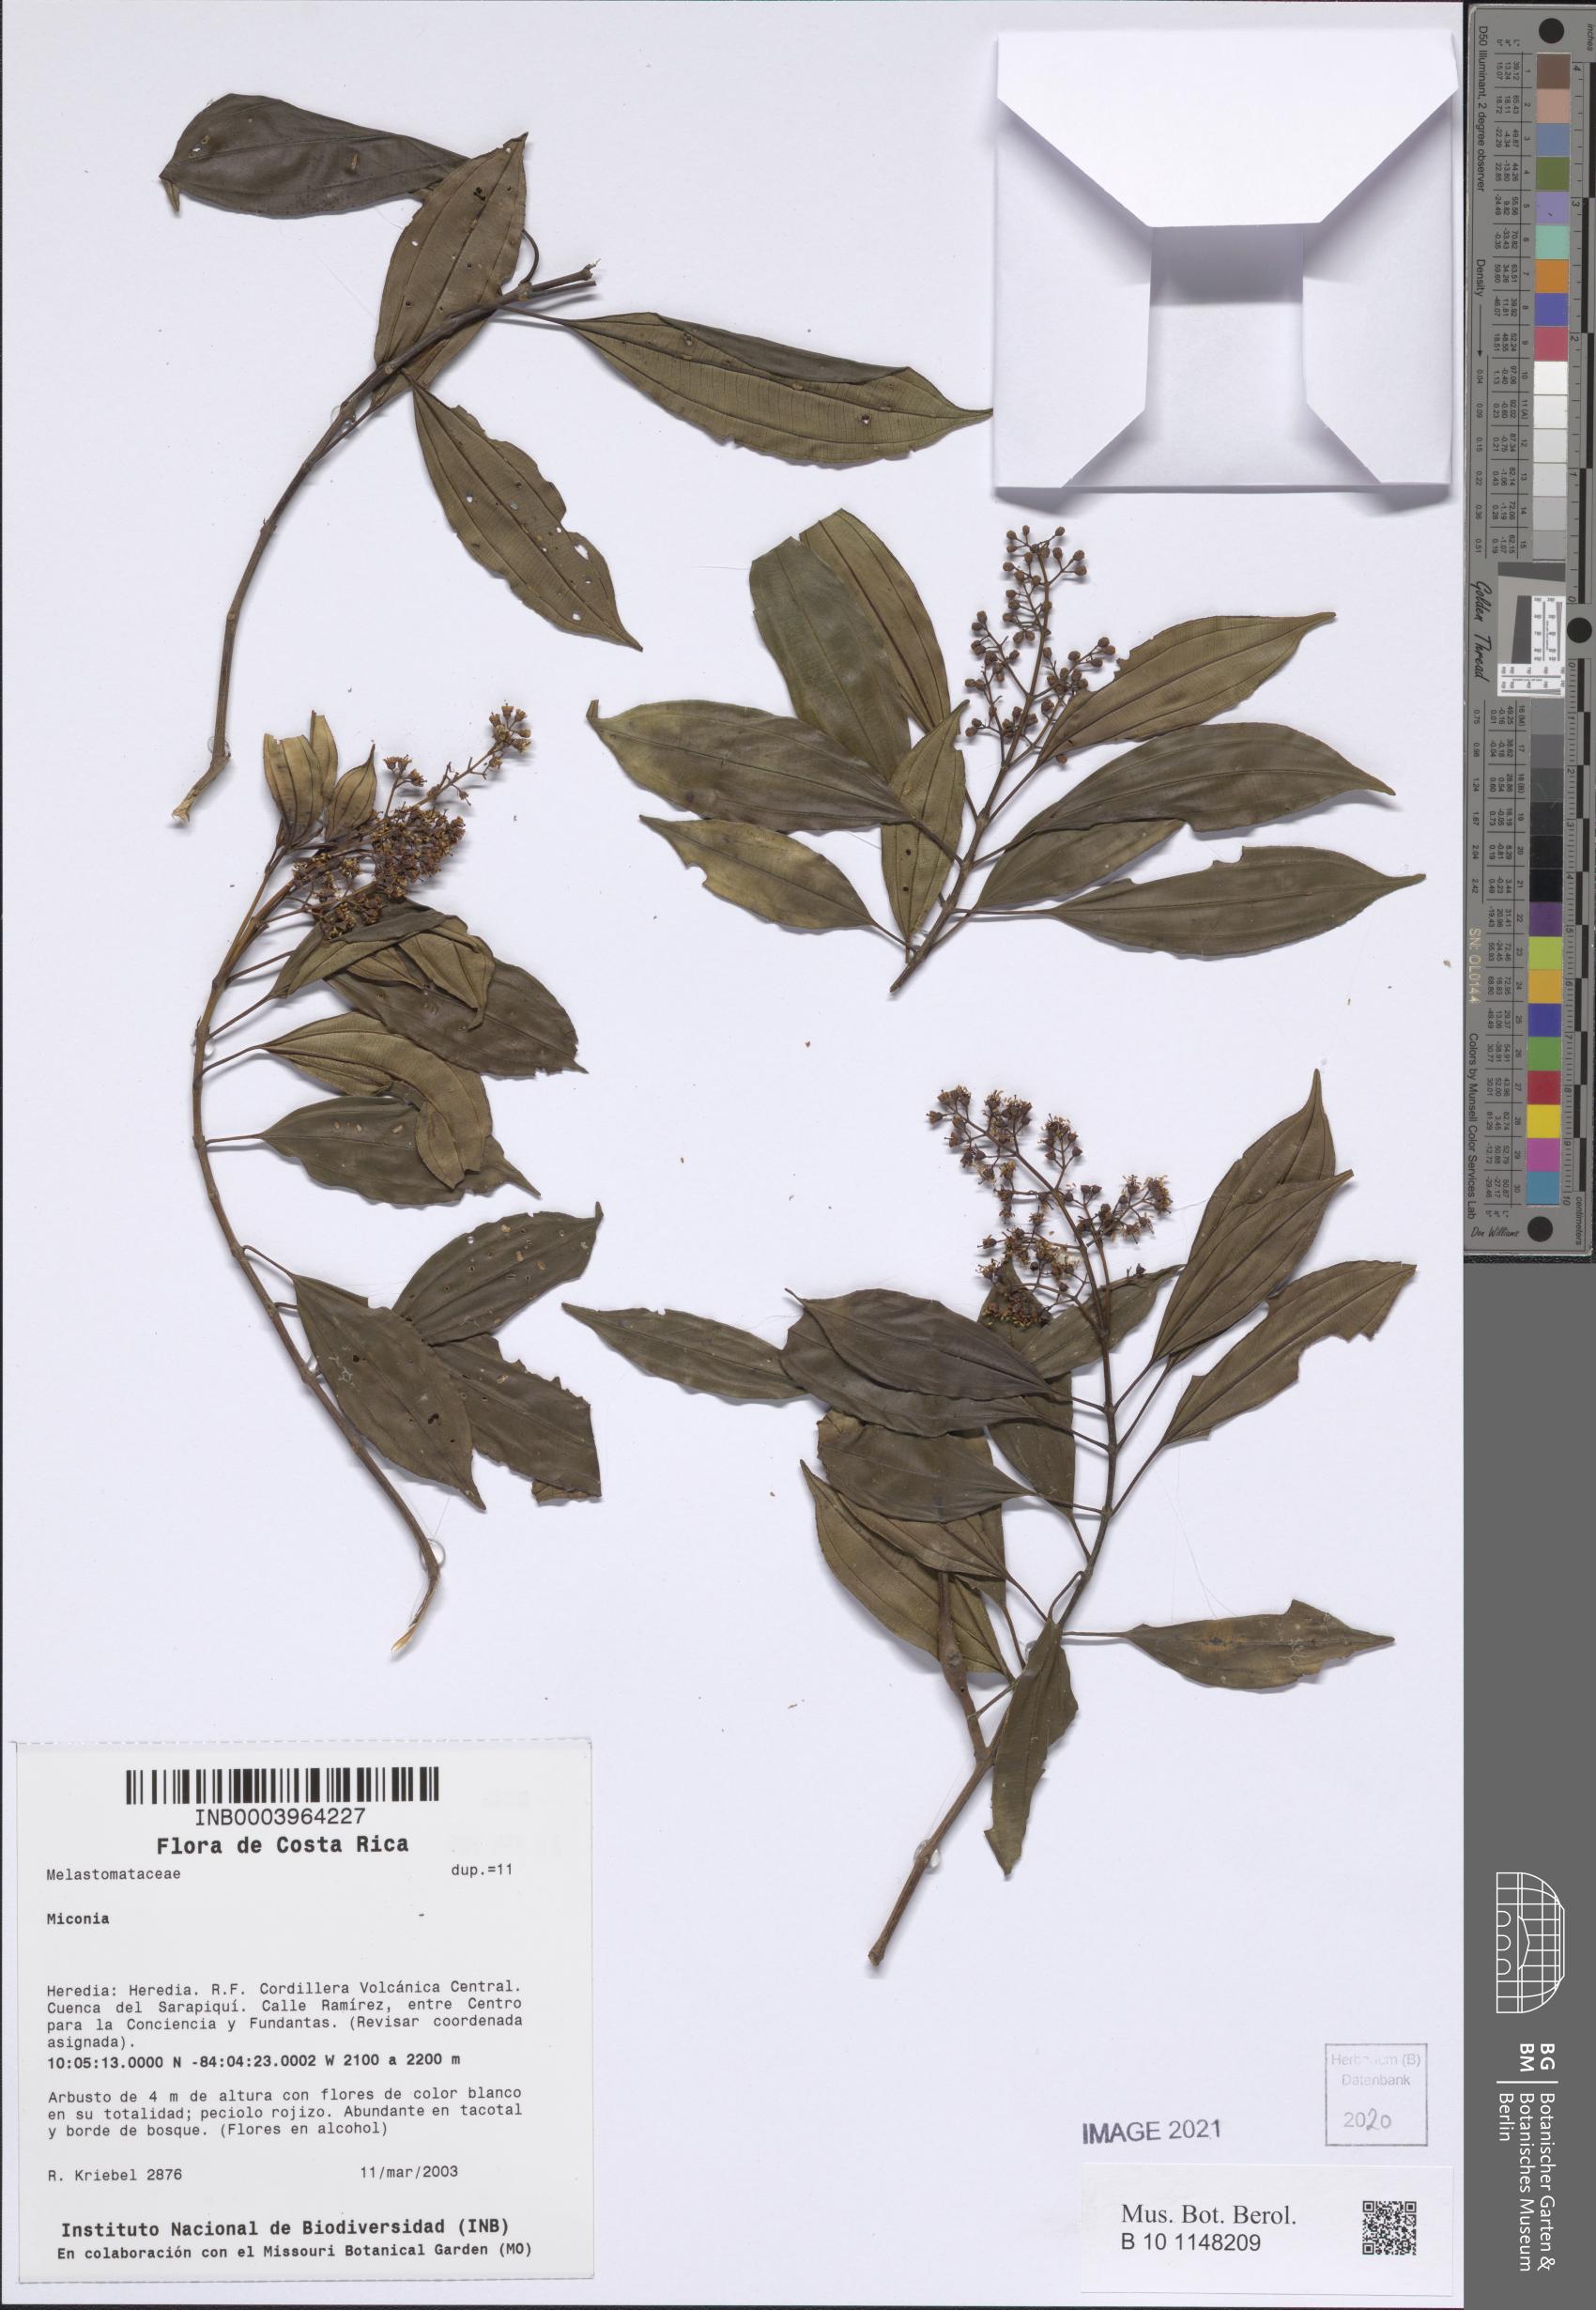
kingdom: Plantae
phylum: Tracheophyta
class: Magnoliopsida
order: Myrtales
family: Melastomataceae
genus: Miconia
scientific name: Miconia
